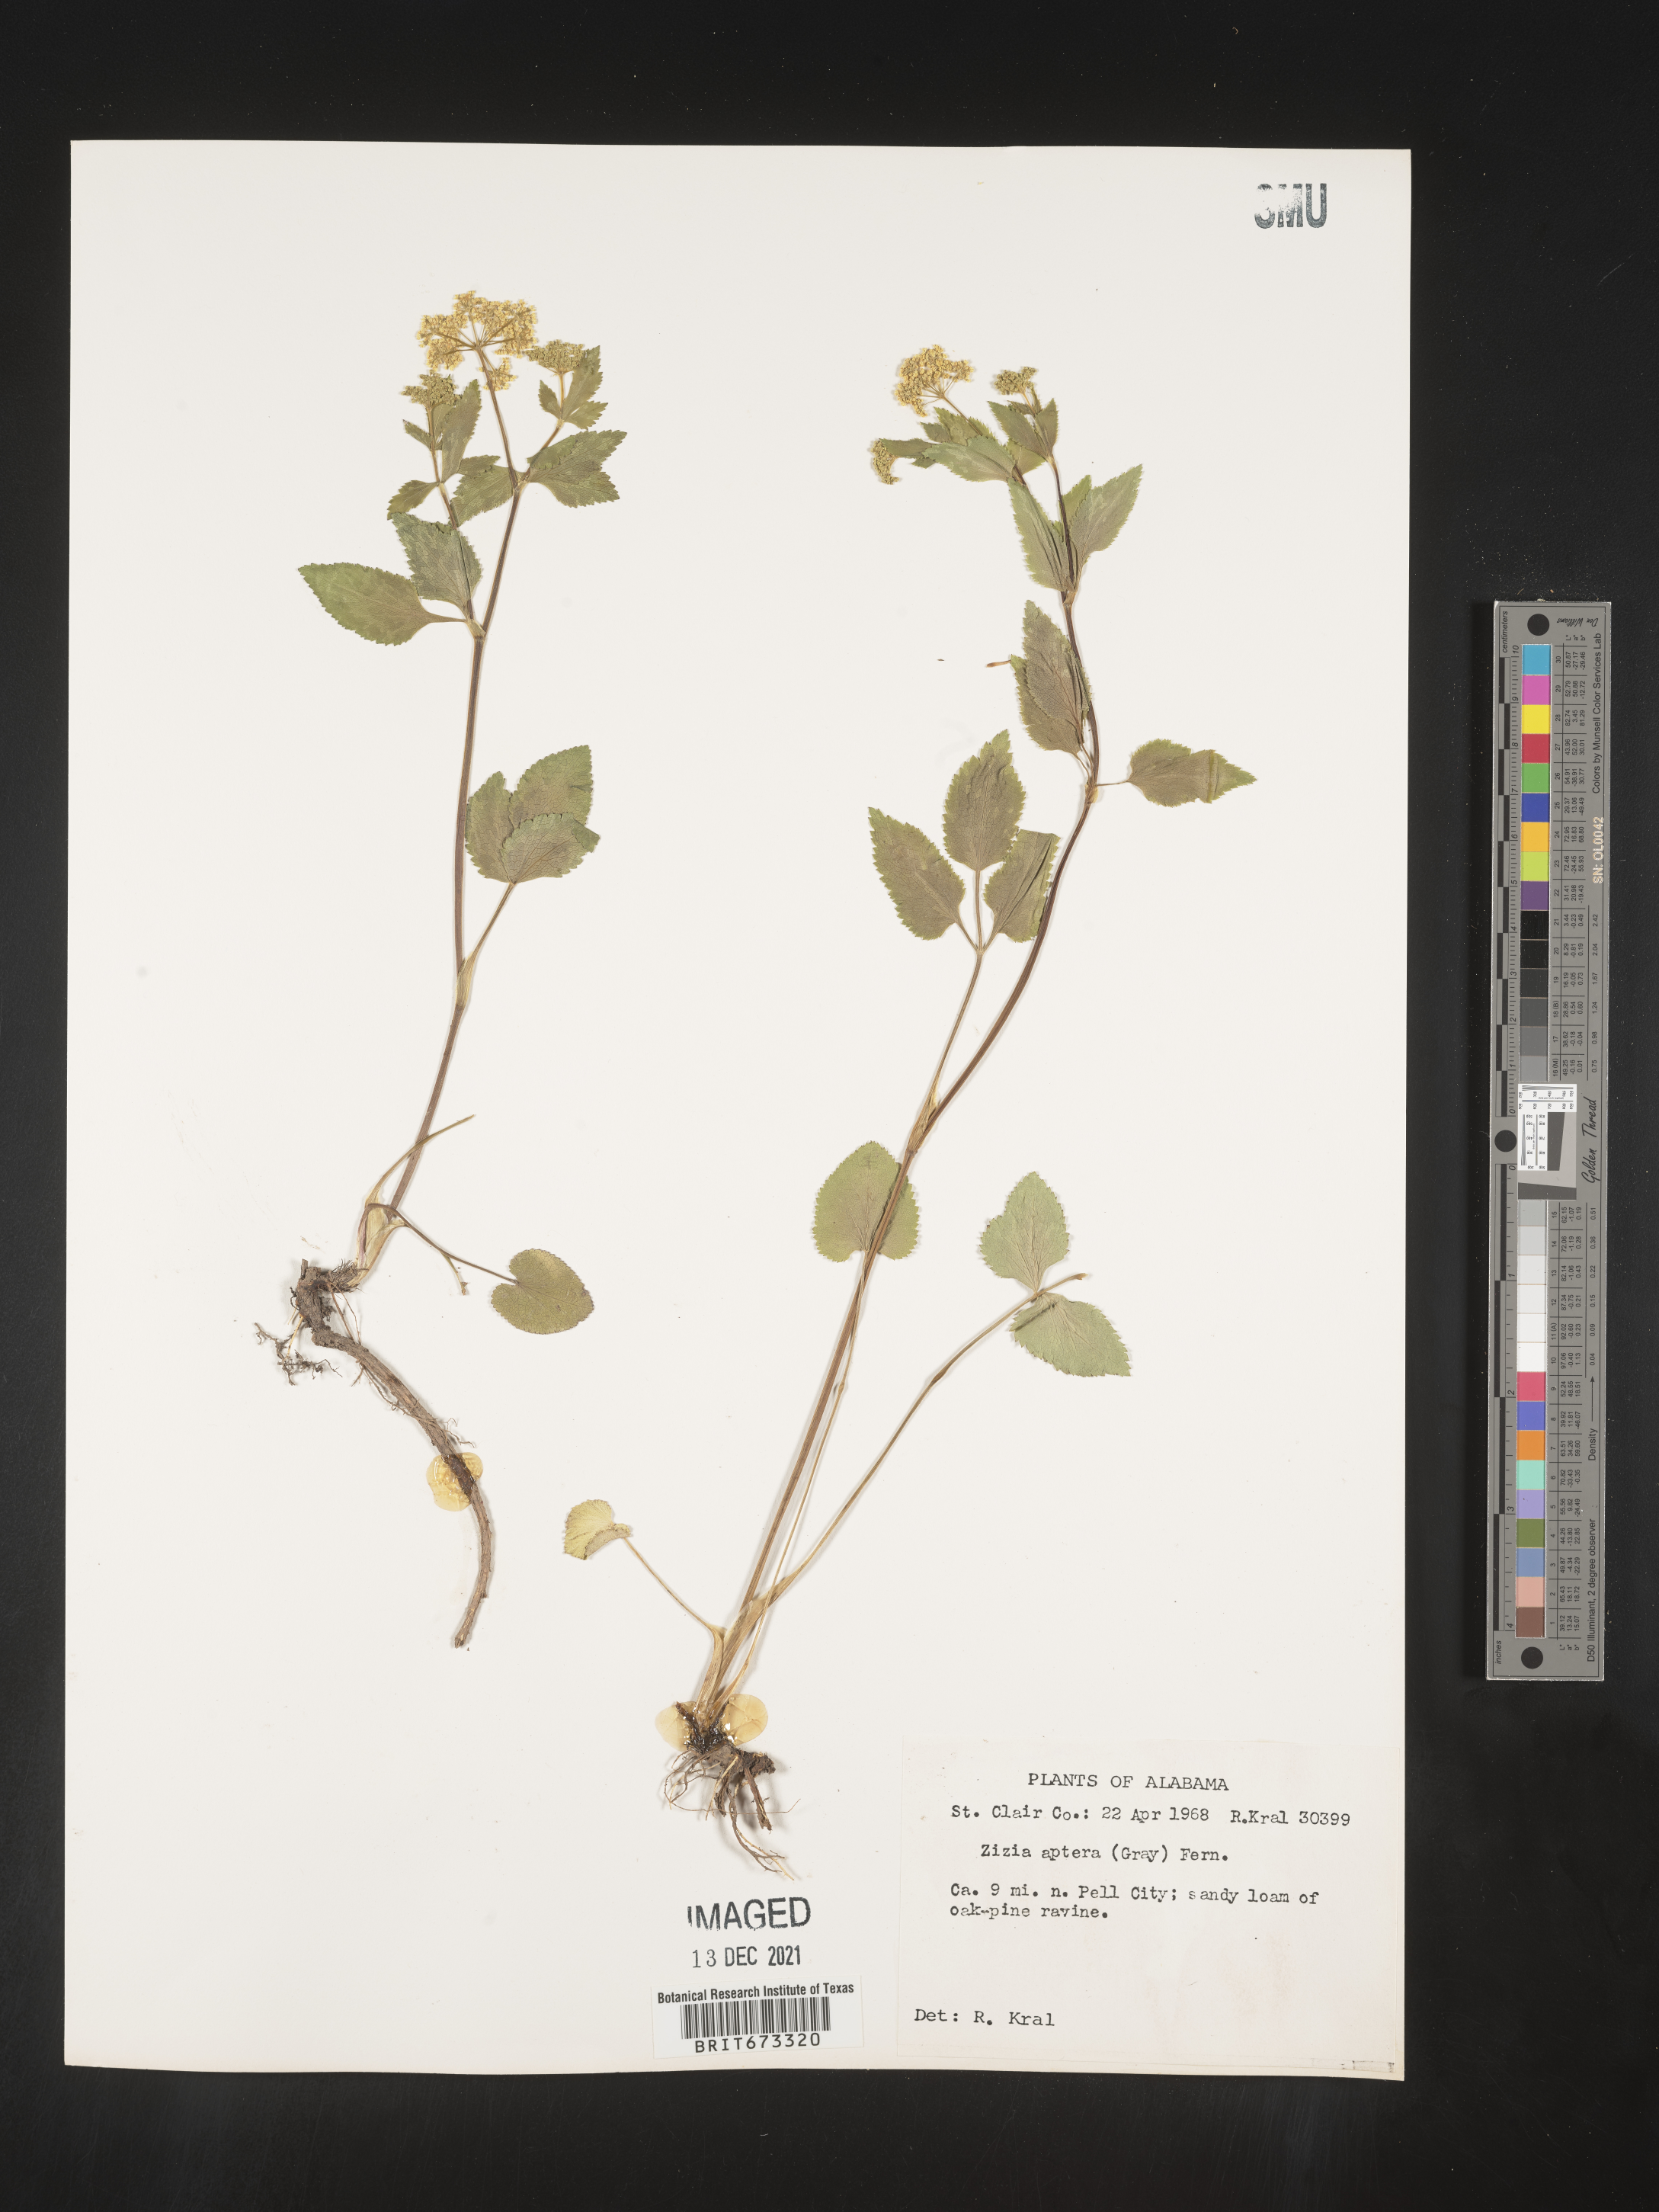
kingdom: Plantae
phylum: Tracheophyta
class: Magnoliopsida
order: Apiales
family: Apiaceae
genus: Zizia
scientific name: Zizia aptera
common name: Heart-leaved alexanders
